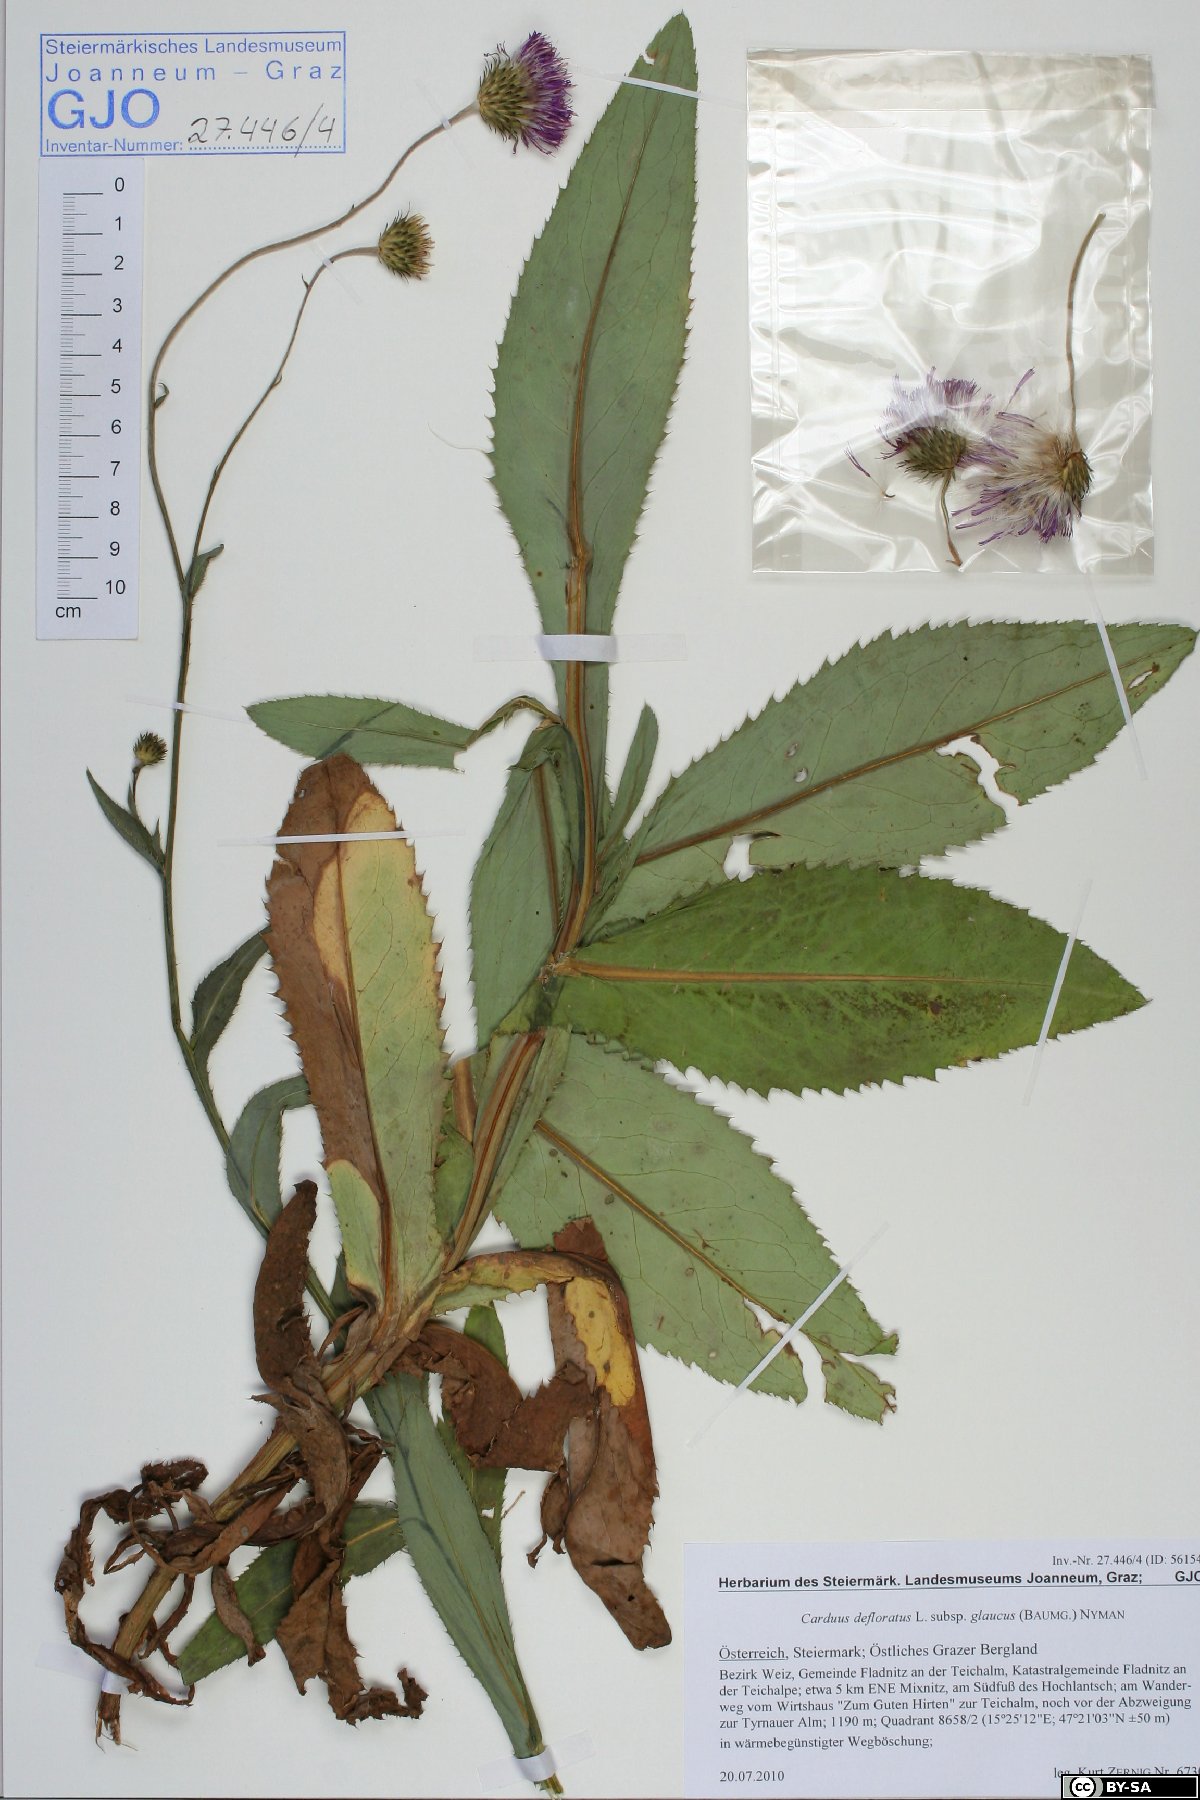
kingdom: Plantae
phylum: Tracheophyta
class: Magnoliopsida
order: Asterales
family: Asteraceae
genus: Carduus
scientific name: Carduus defloratus
